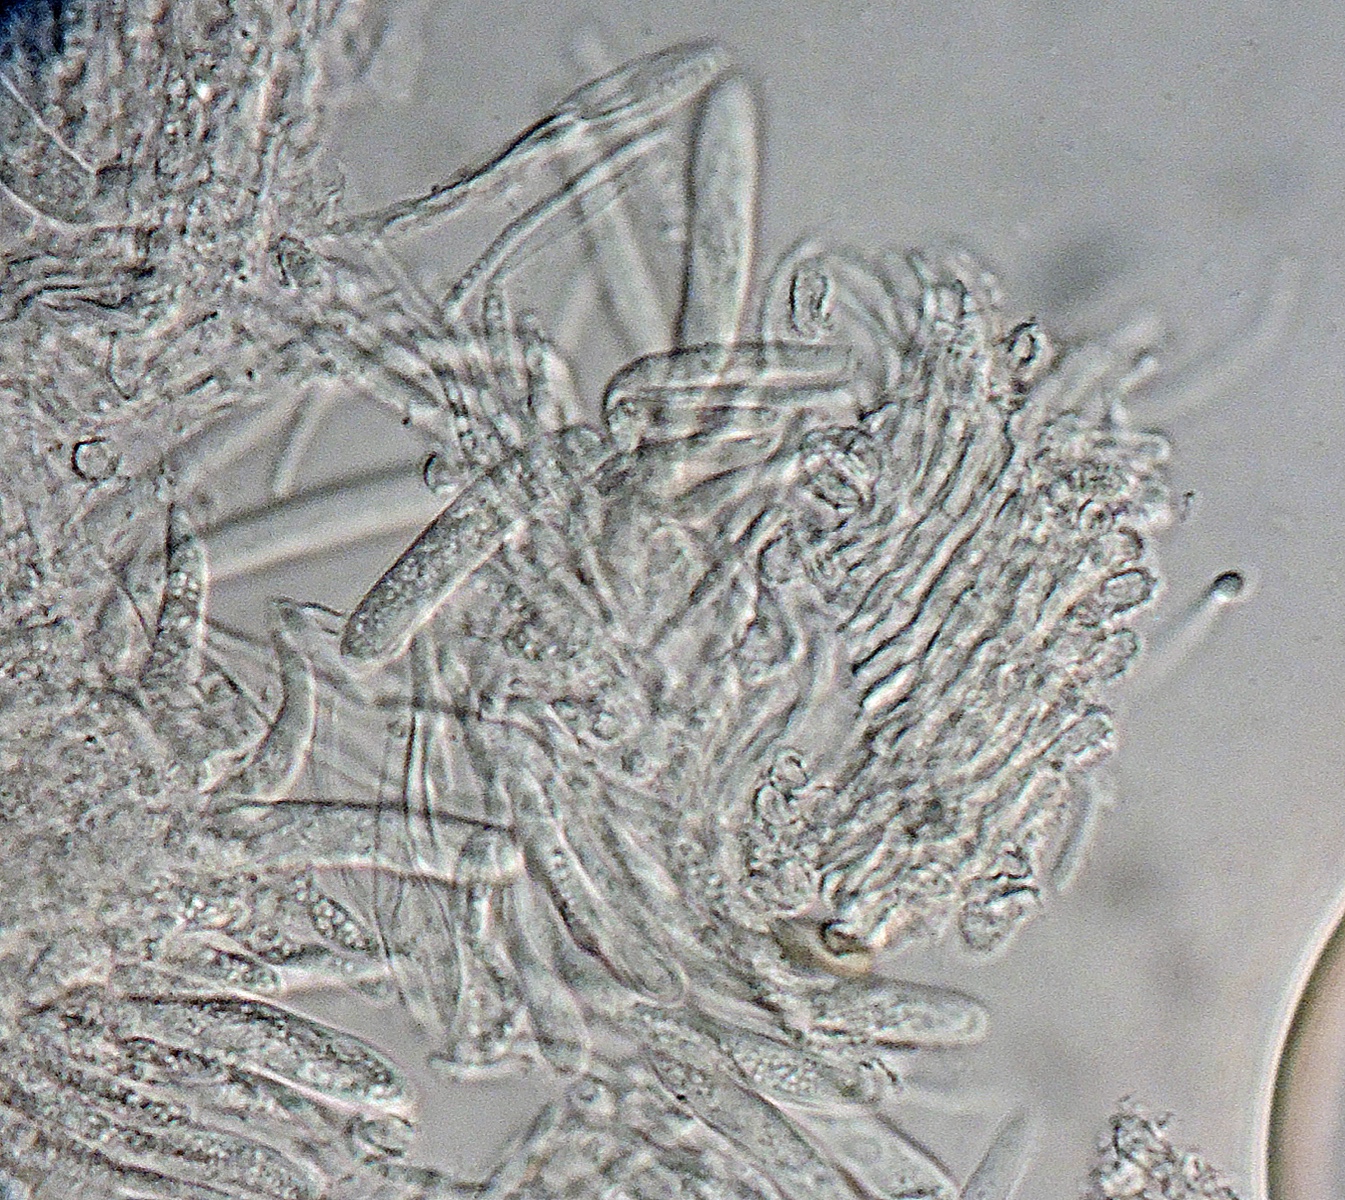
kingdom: Fungi
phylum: Ascomycota
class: Leotiomycetes
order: Helotiales
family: Hyaloscyphaceae
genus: Cistella
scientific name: Cistella
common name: sirskive
